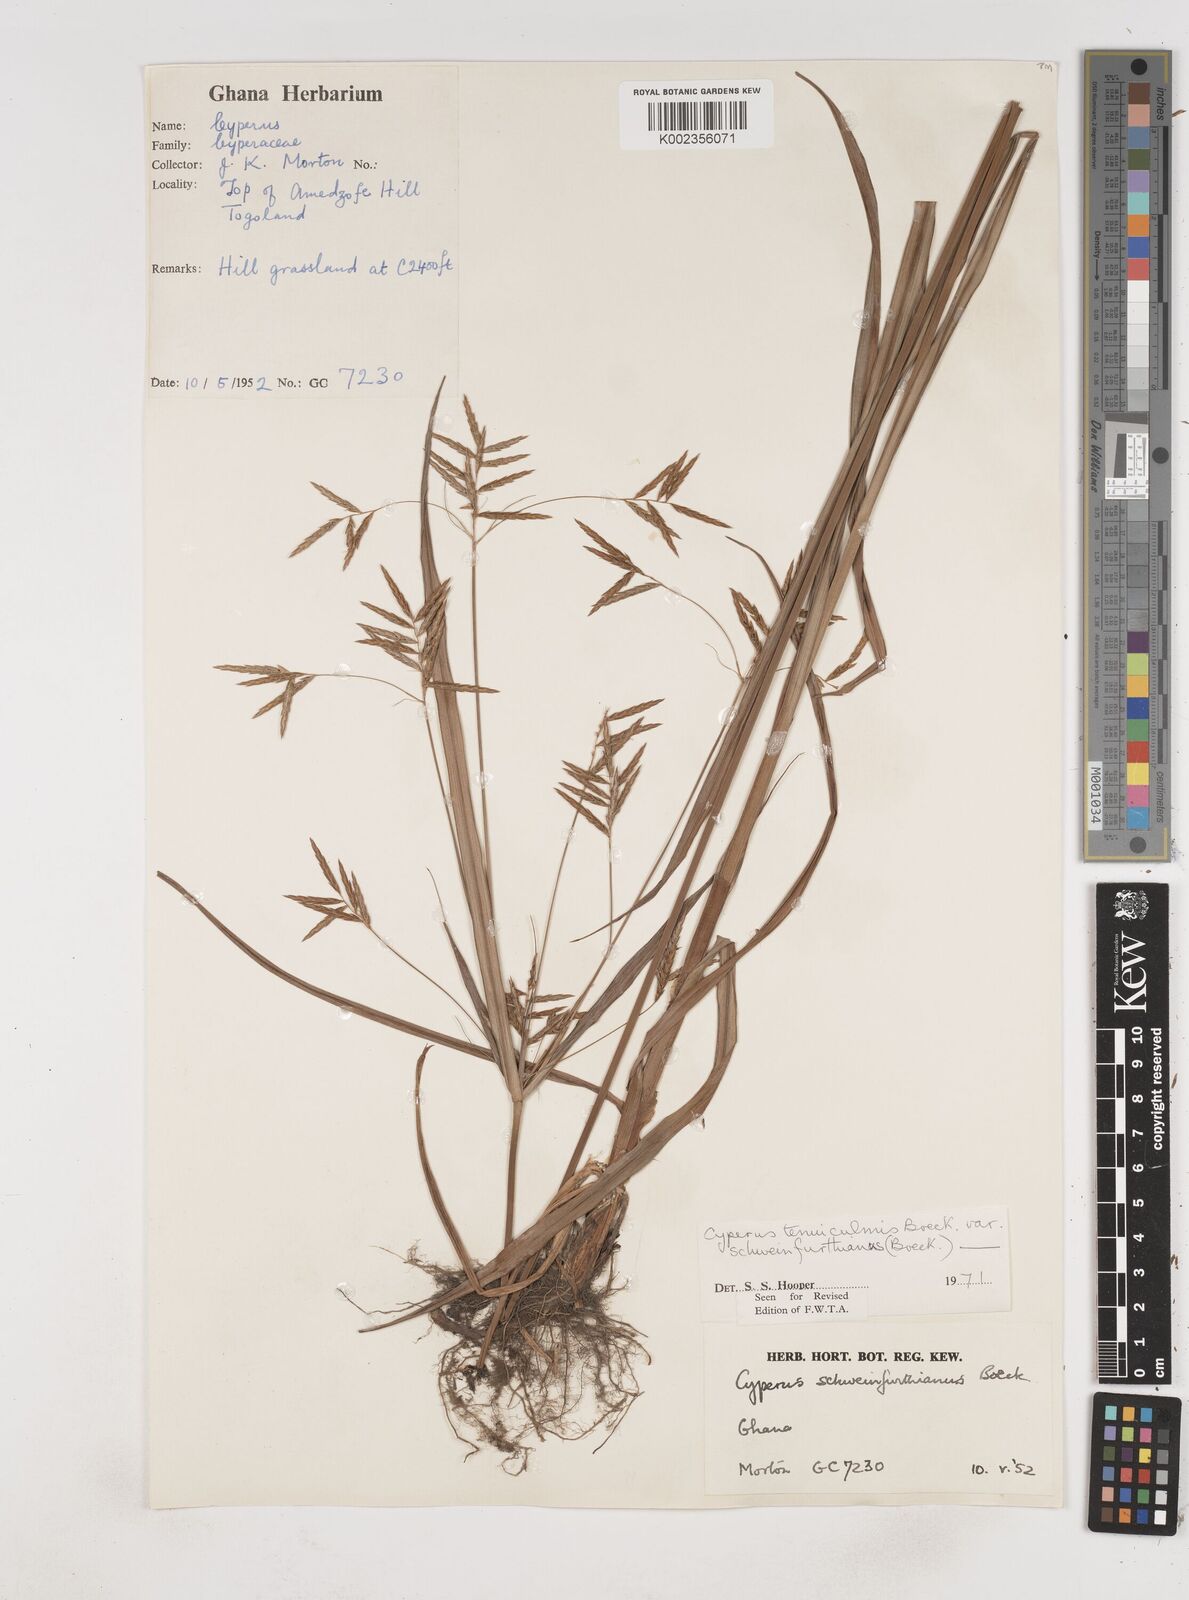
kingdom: Plantae
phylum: Tracheophyta
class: Liliopsida
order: Poales
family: Cyperaceae
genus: Cyperus
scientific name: Cyperus tenuiculmis
